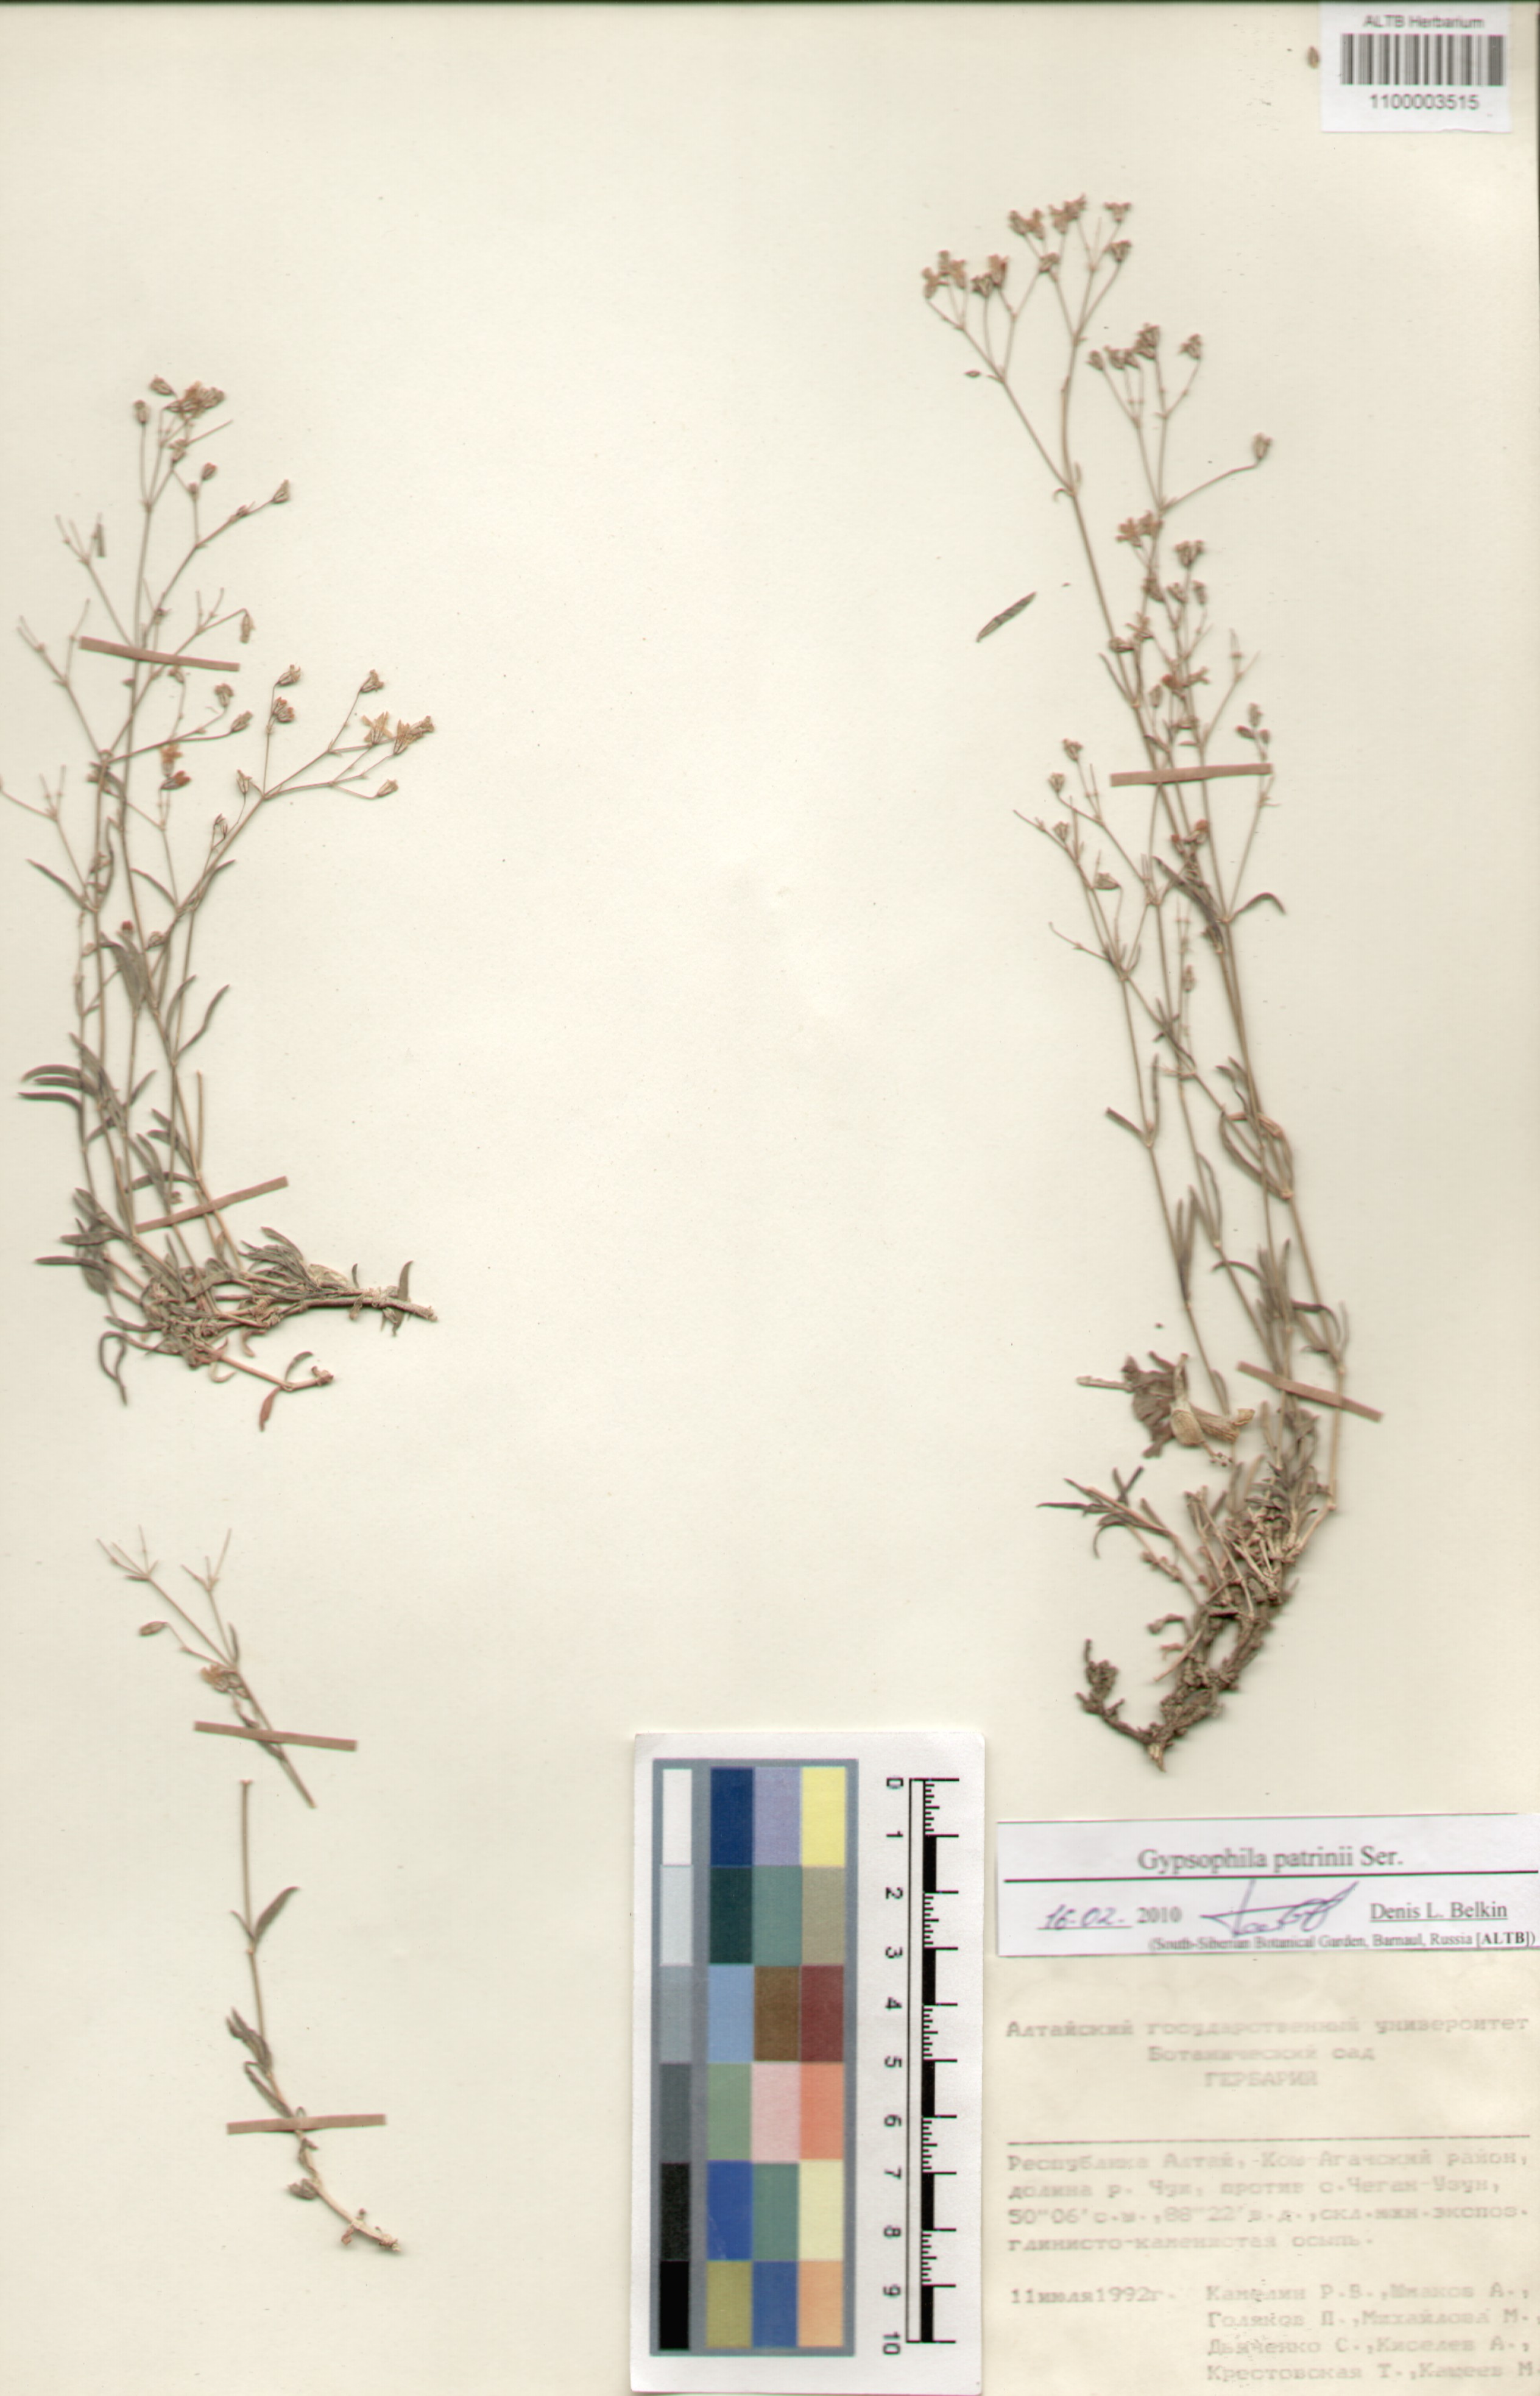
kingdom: Plantae
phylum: Tracheophyta
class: Magnoliopsida
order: Caryophyllales
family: Caryophyllaceae
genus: Gypsophila
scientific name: Gypsophila patrinii
